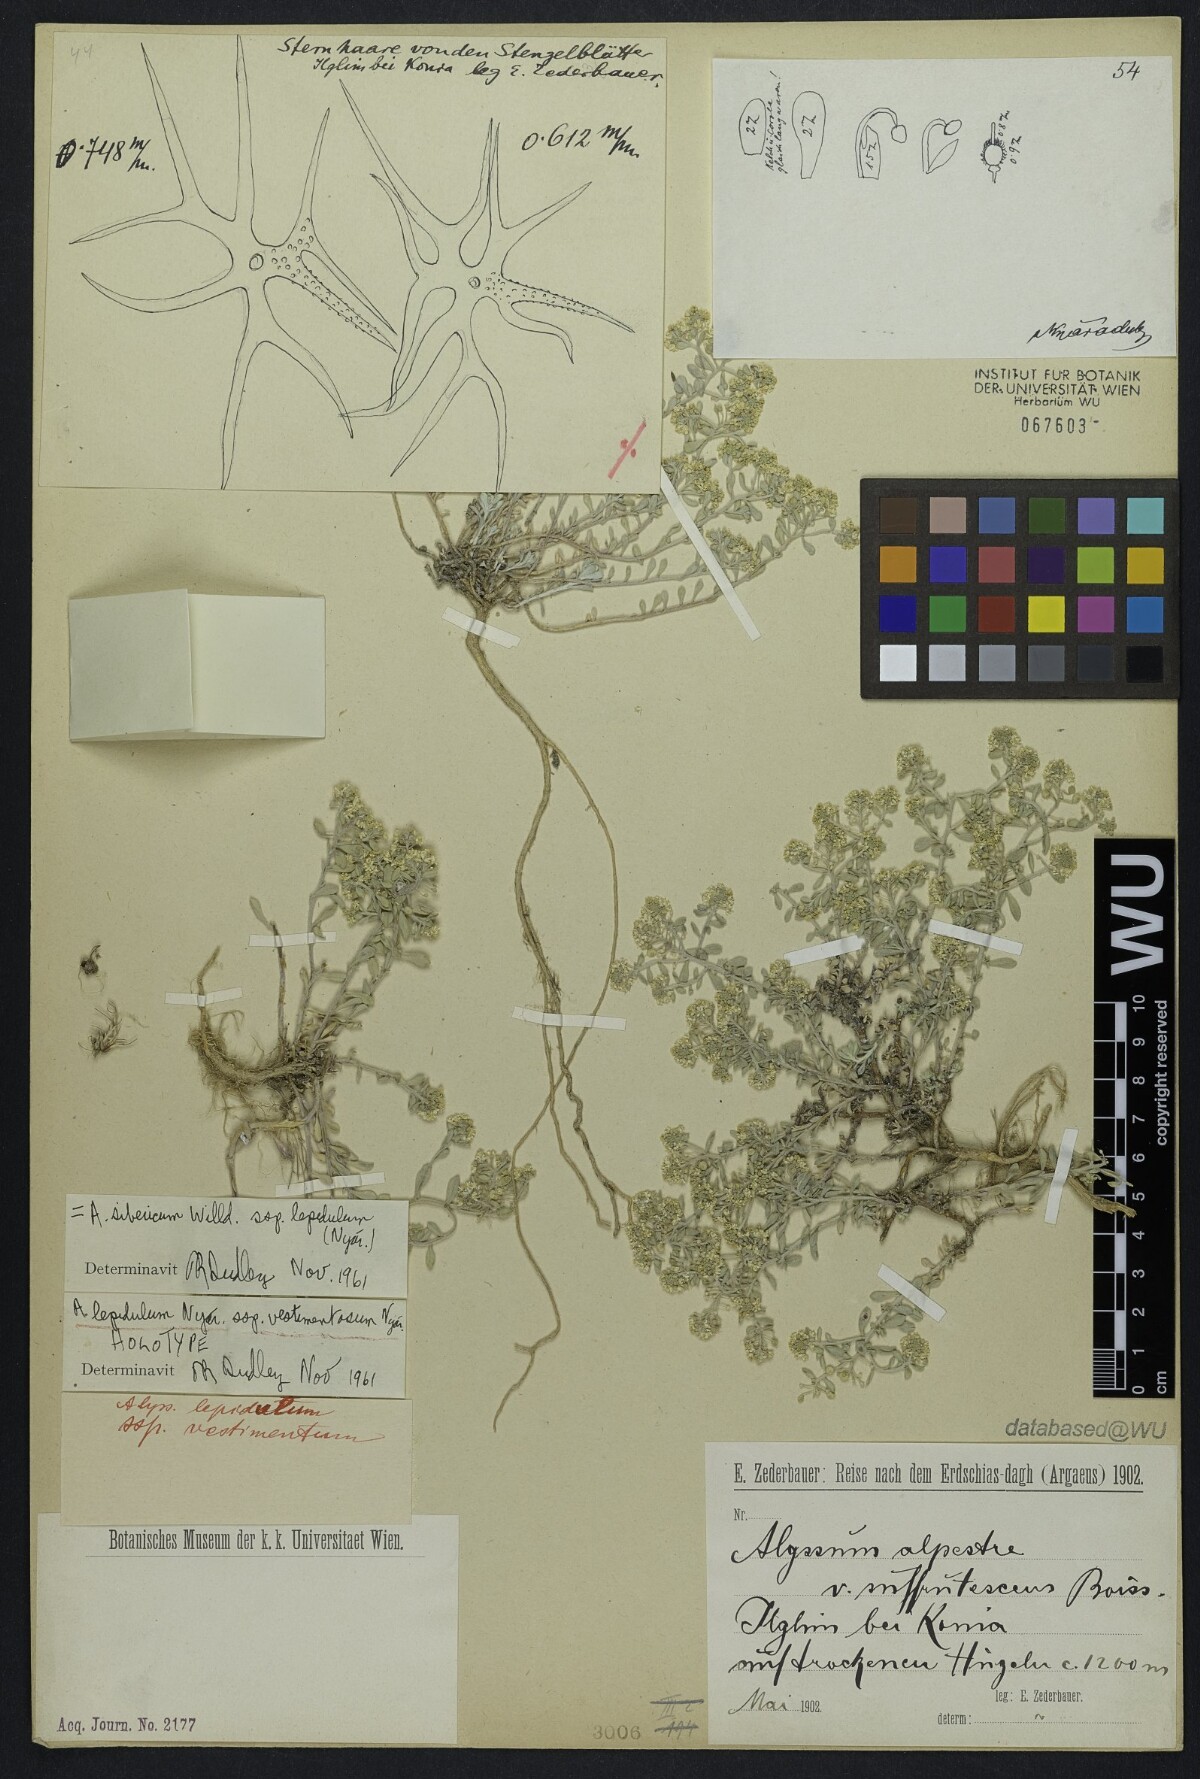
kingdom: Plantae
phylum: Tracheophyta
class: Magnoliopsida
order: Brassicales
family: Brassicaceae
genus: Odontarrhena
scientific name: Odontarrhena sibirica
